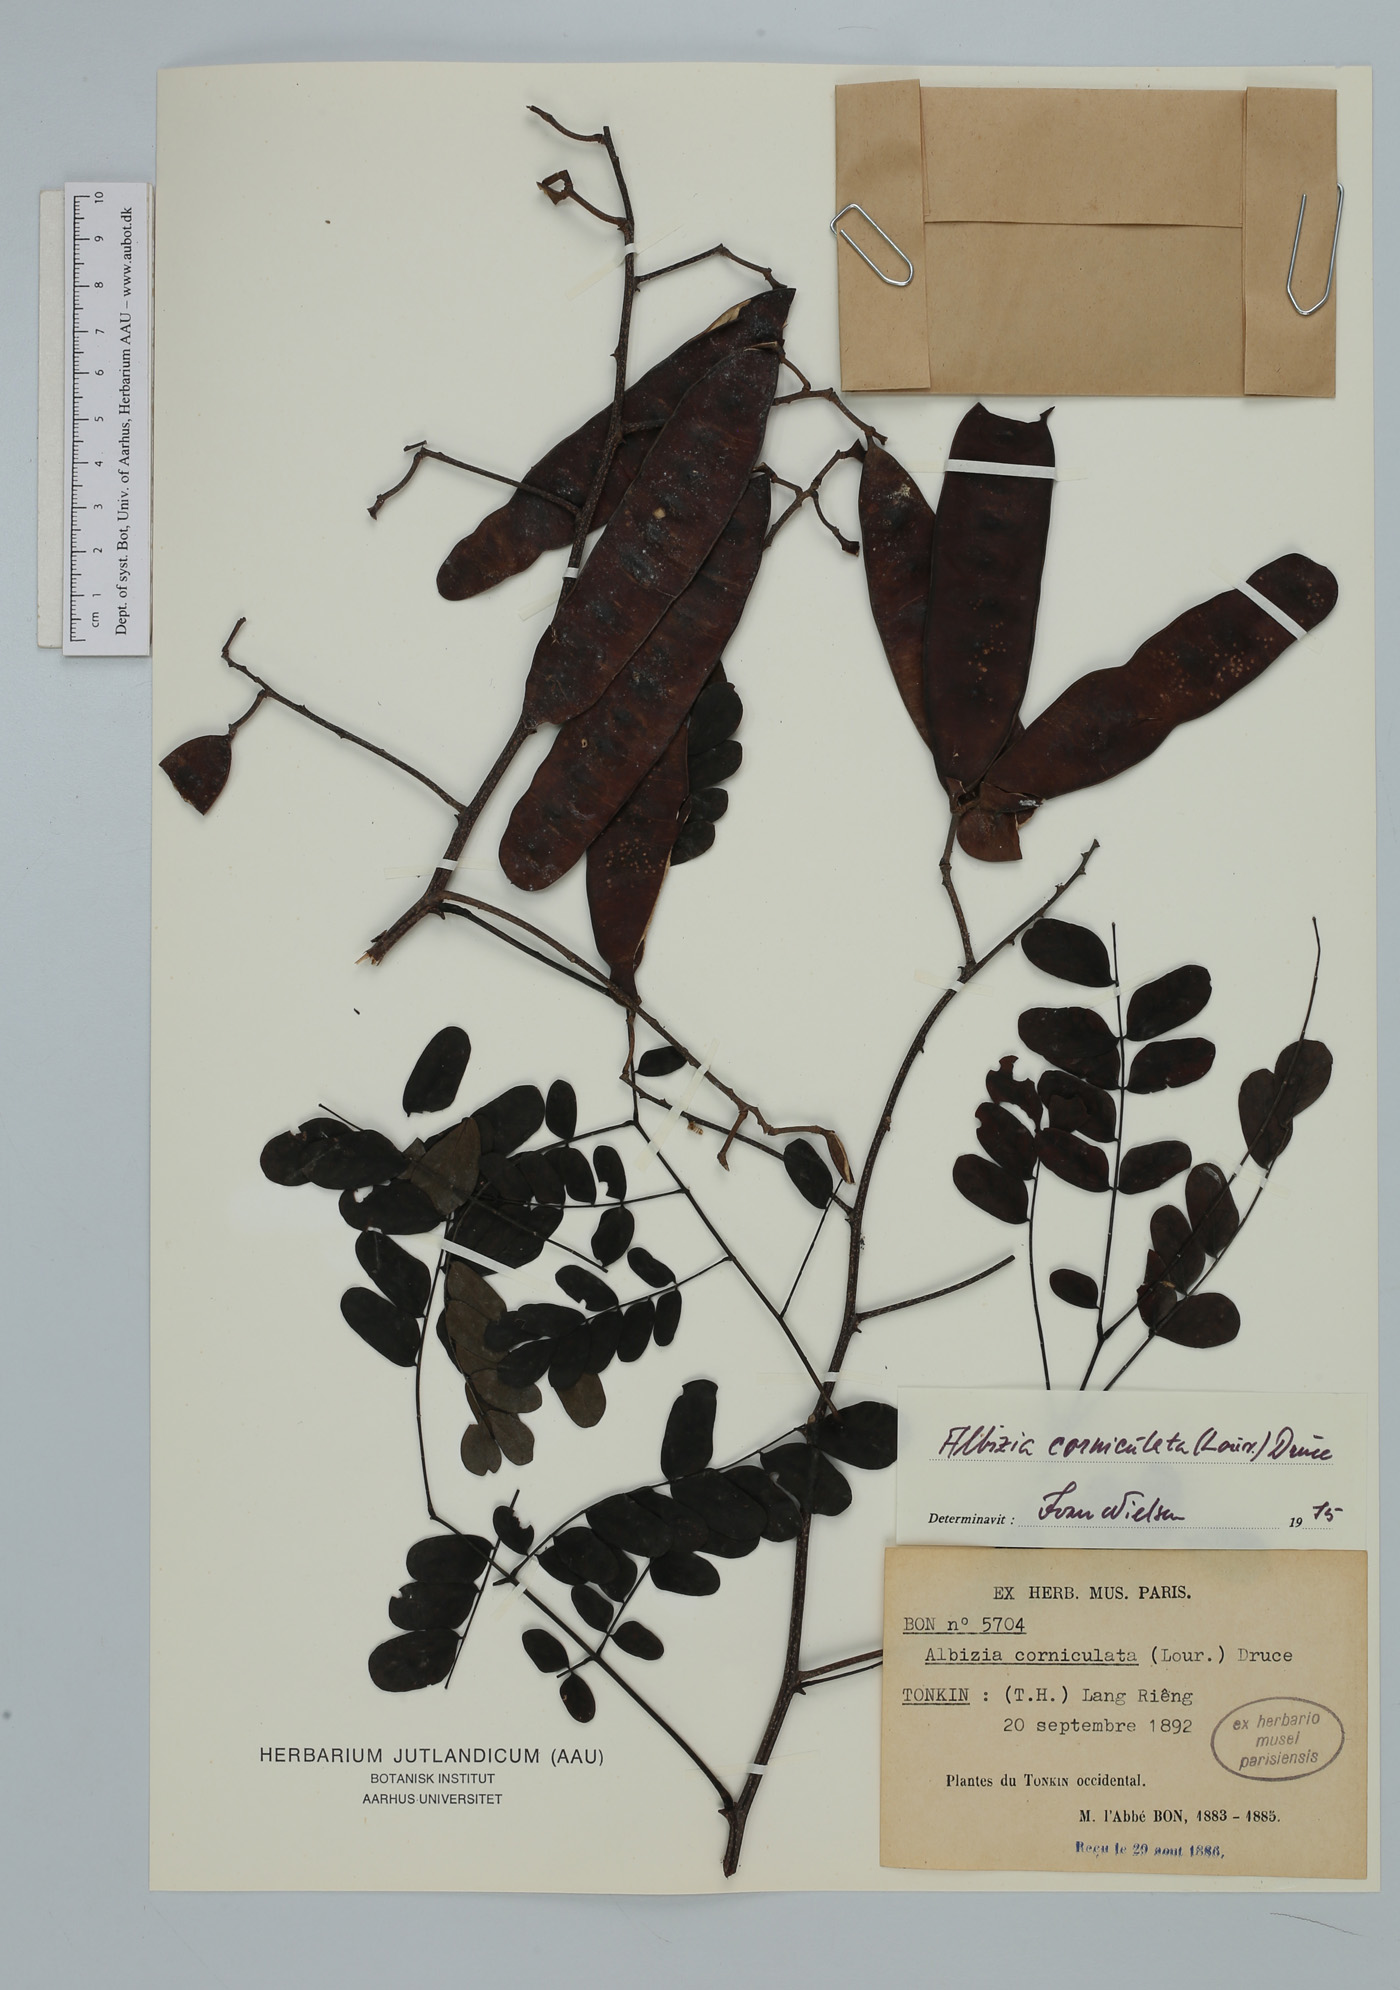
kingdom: Plantae
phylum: Tracheophyta
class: Magnoliopsida
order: Fabales
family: Fabaceae
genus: Albizia
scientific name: Albizia corniculata
